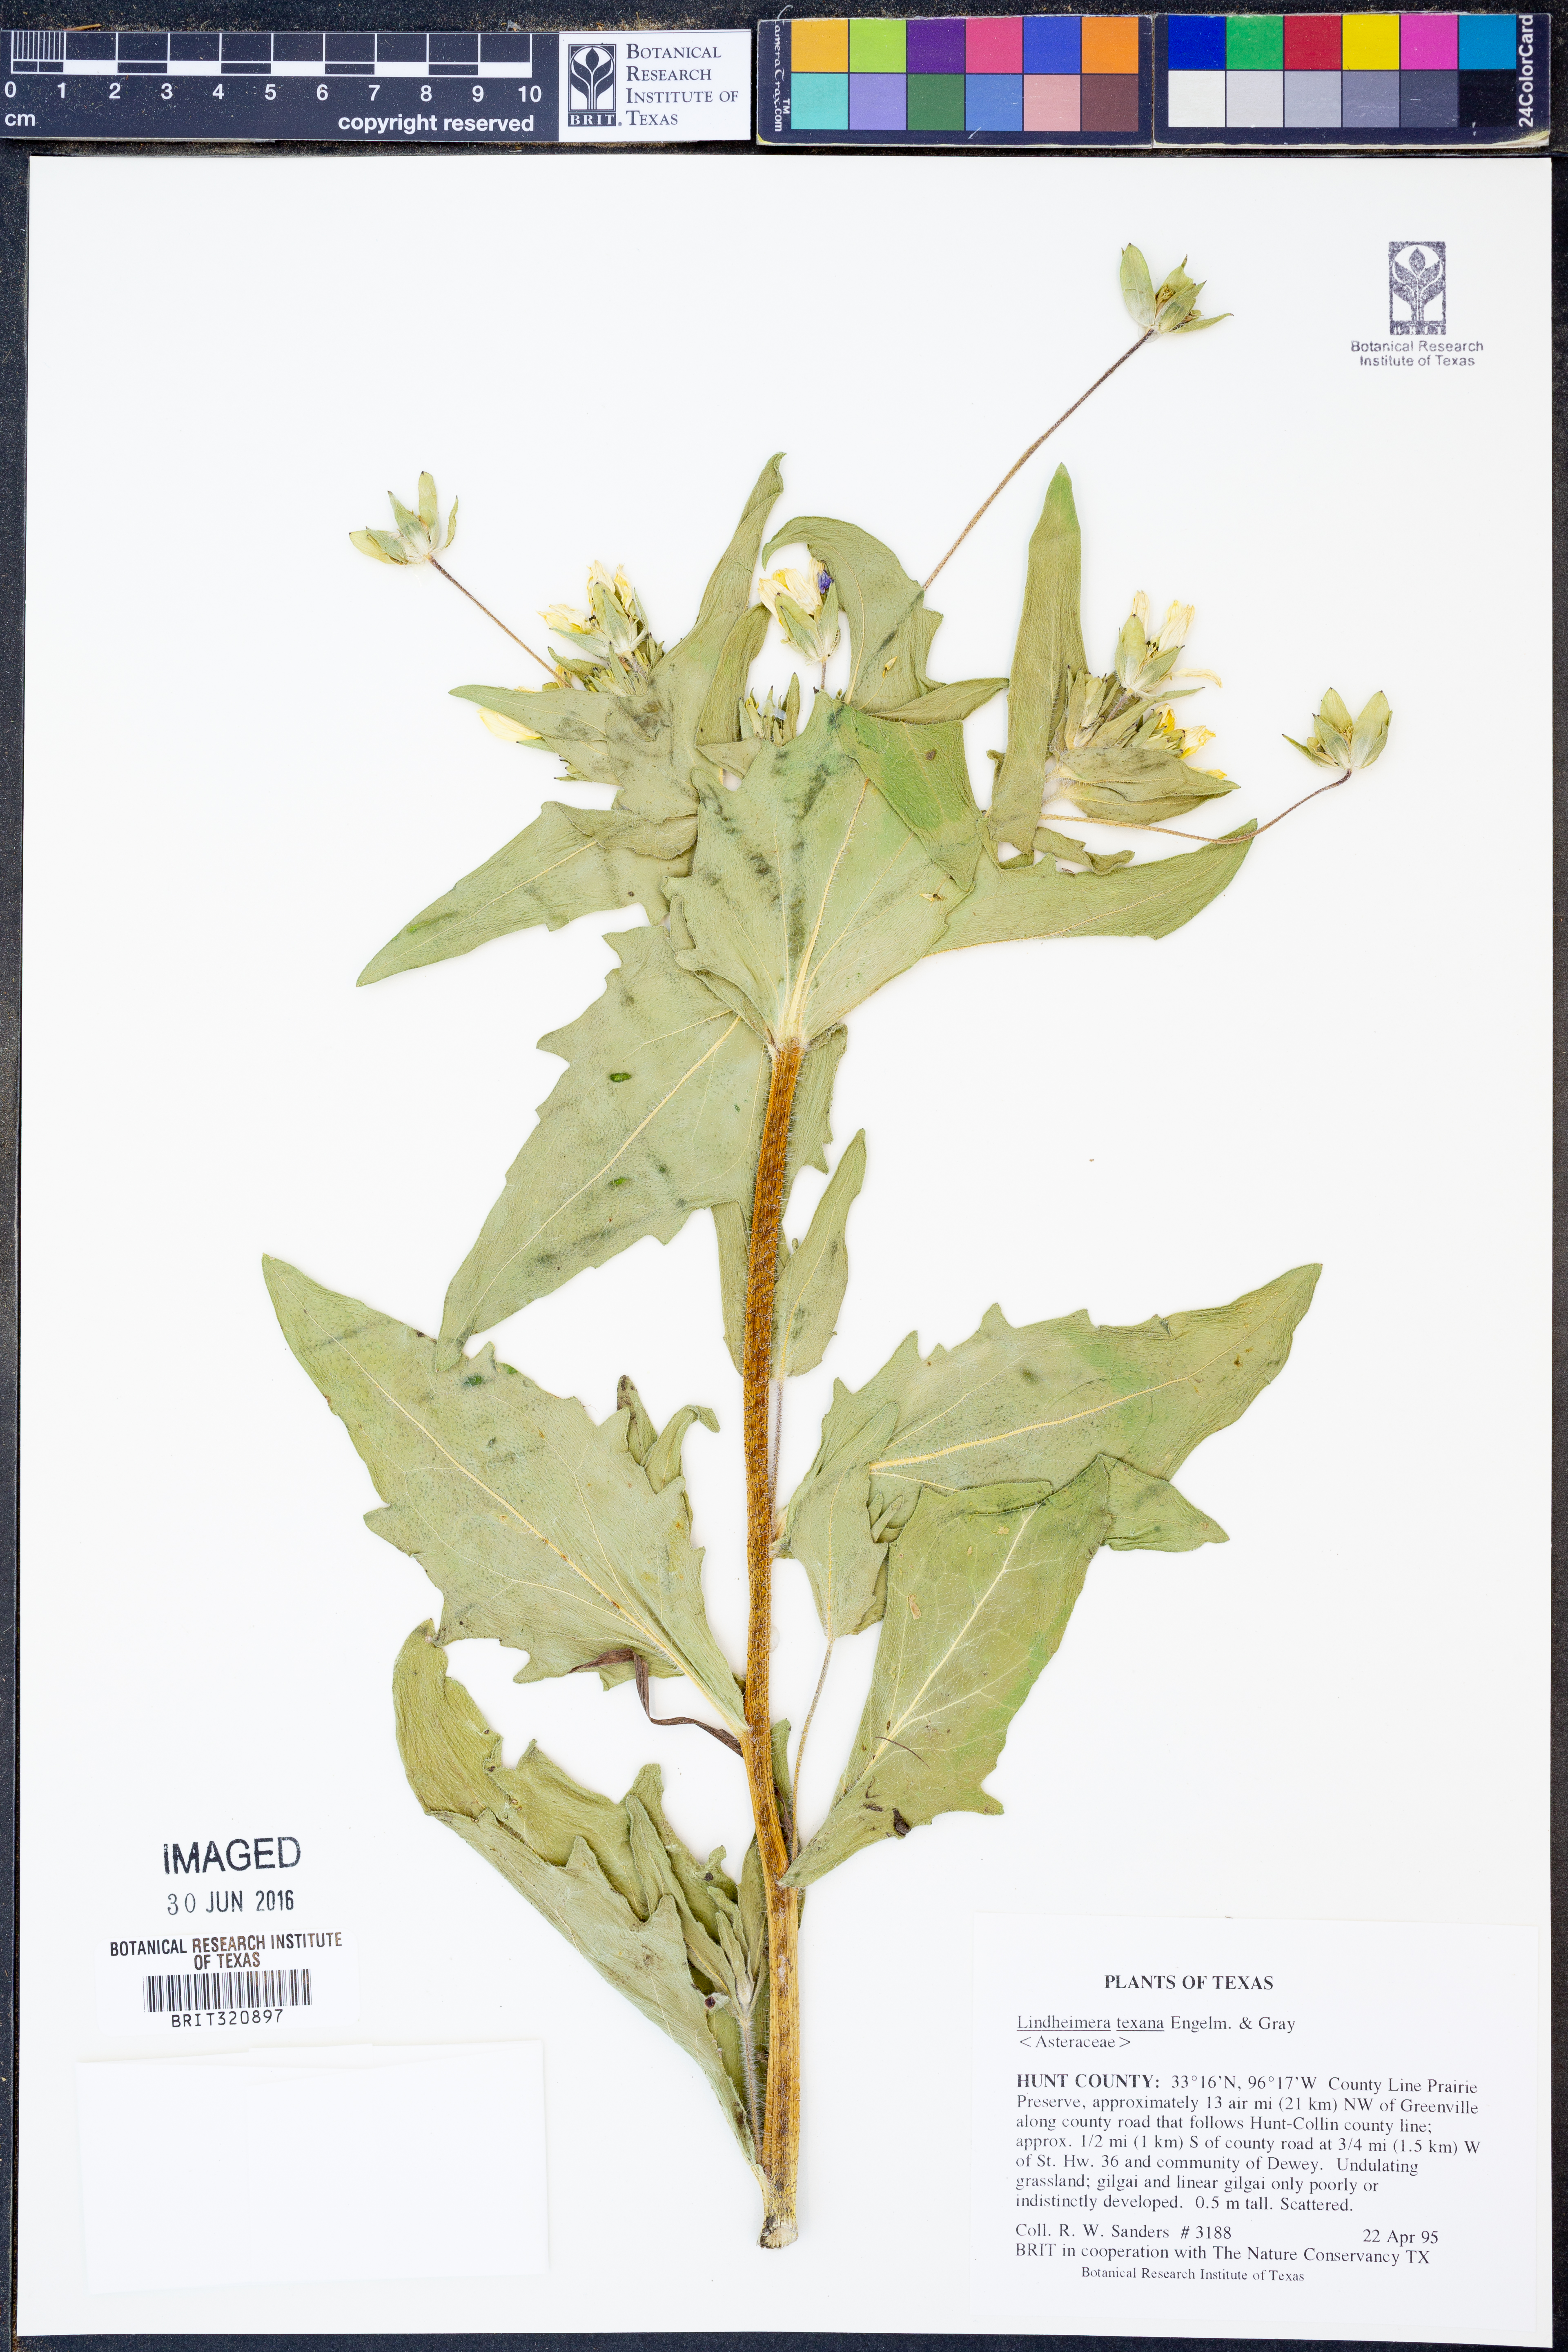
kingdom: Plantae
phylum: Tracheophyta
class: Magnoliopsida
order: Asterales
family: Asteraceae
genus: Lindheimera
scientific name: Lindheimera texana
